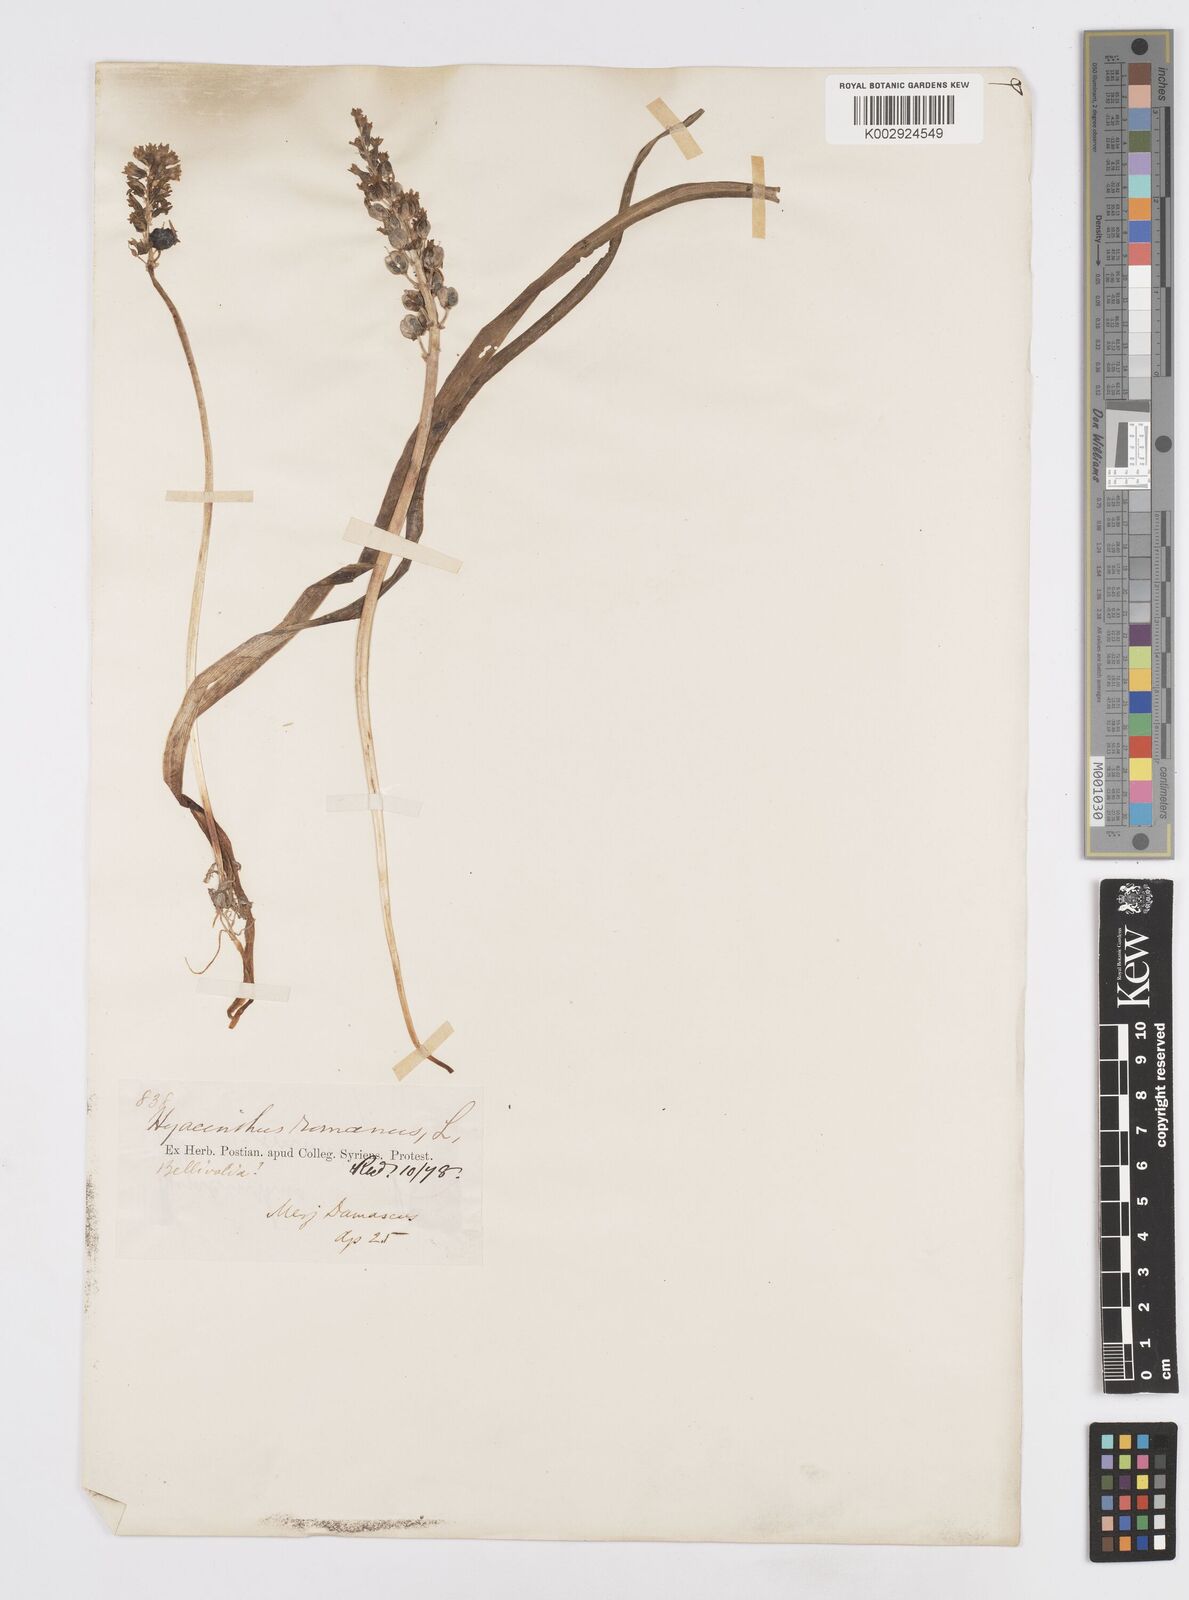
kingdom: Plantae
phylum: Tracheophyta
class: Liliopsida
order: Asparagales
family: Asparagaceae
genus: Bellevalia
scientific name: Bellevalia nivalis
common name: Snow bellevalia
